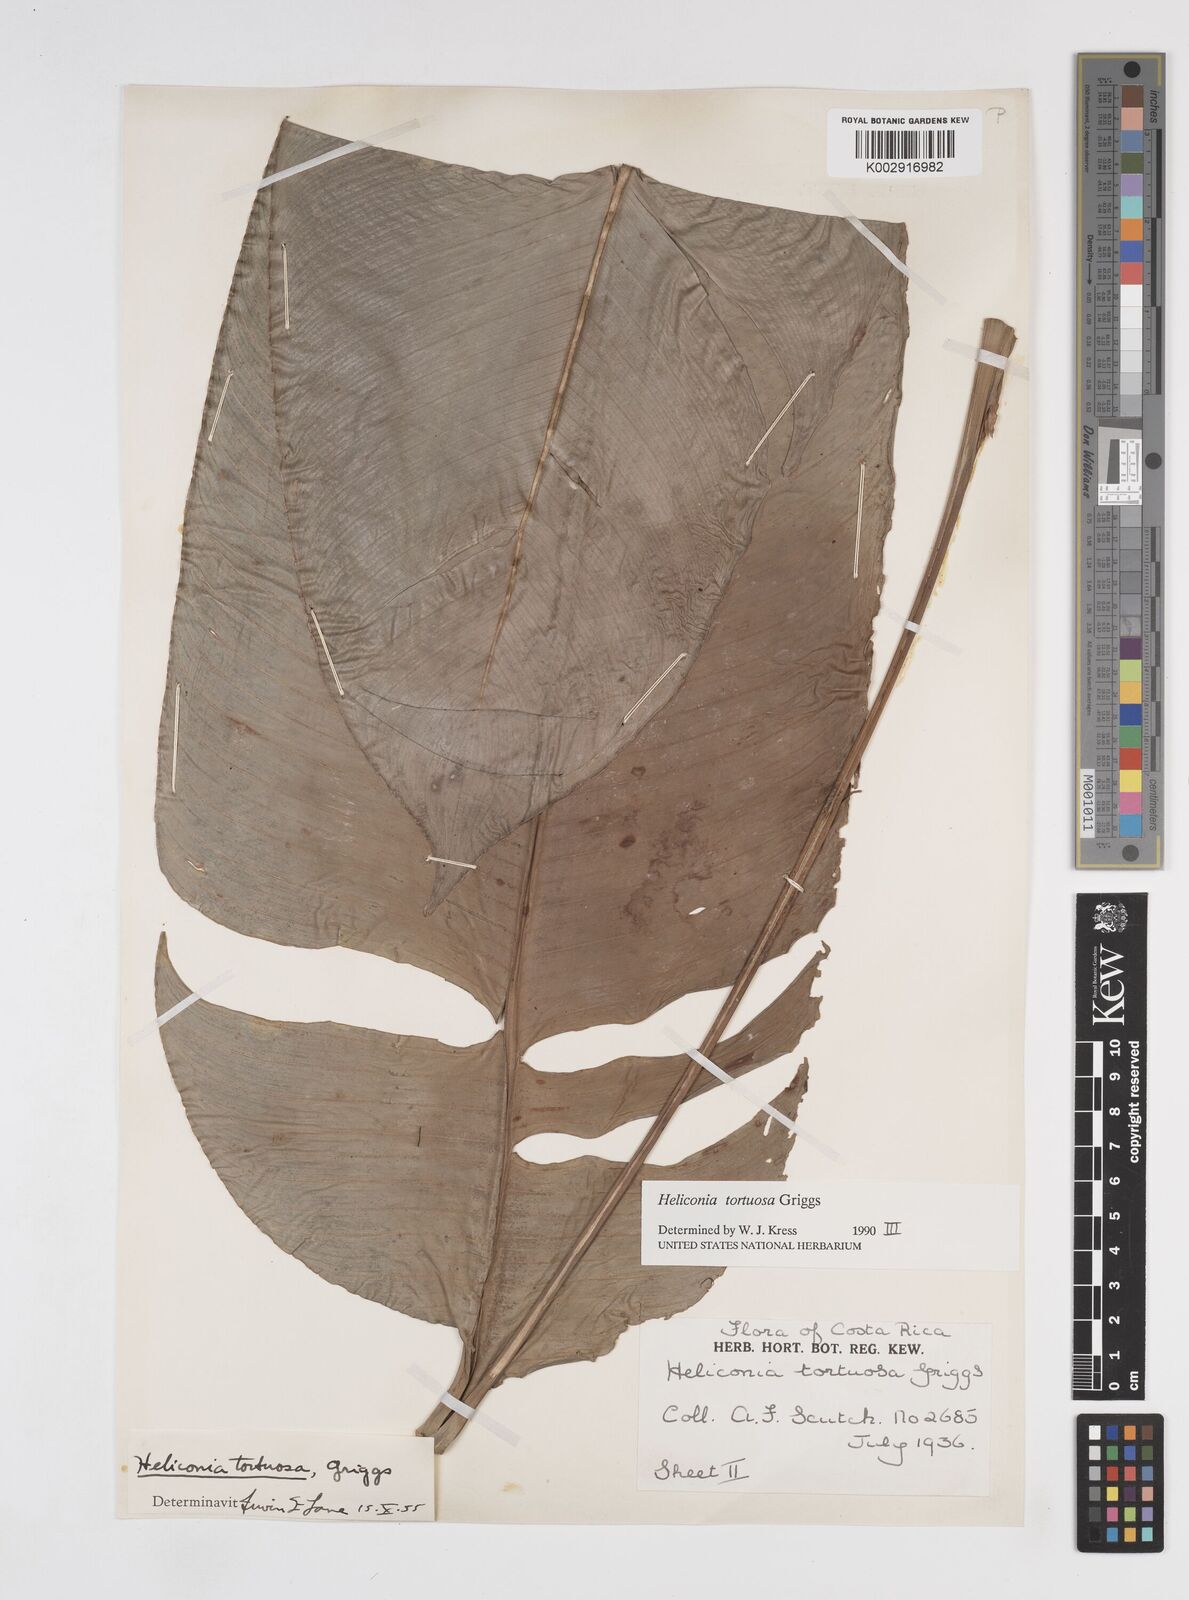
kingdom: Plantae
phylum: Tracheophyta
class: Liliopsida
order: Zingiberales
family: Heliconiaceae
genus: Heliconia
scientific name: Heliconia tortuosa
